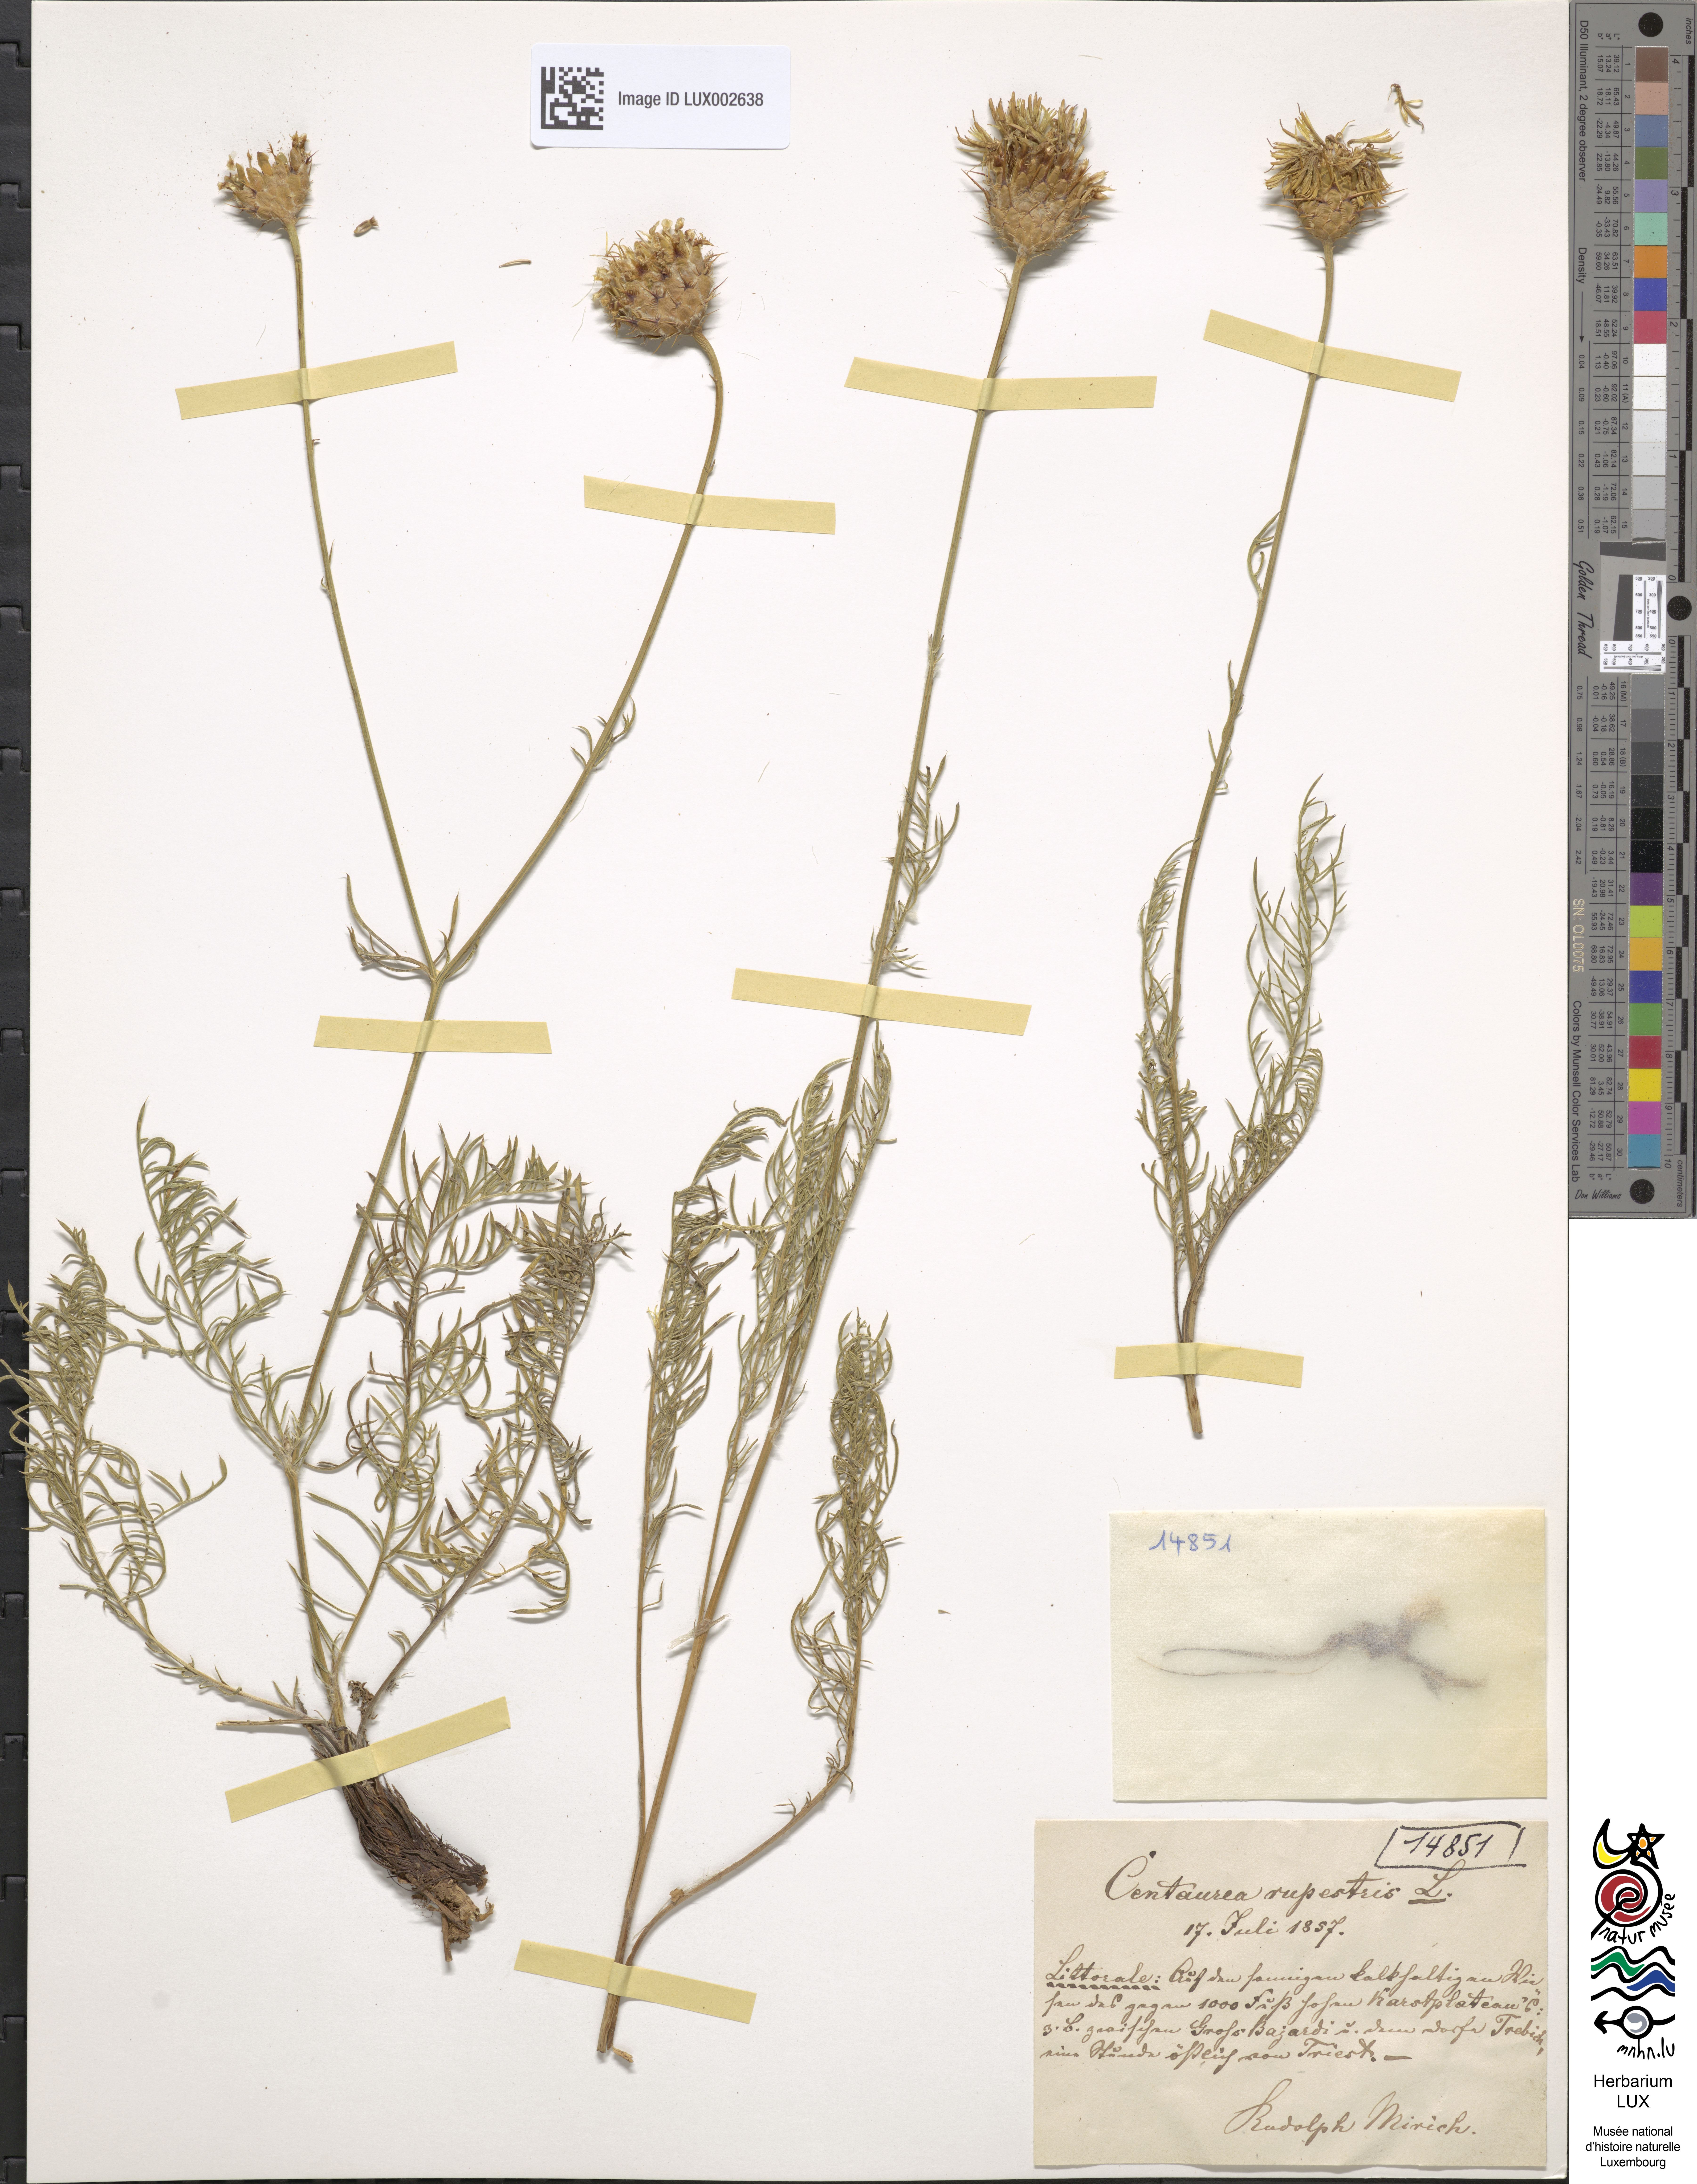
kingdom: Plantae
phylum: Tracheophyta
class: Magnoliopsida
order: Asterales
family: Asteraceae
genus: Centaurea
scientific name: Centaurea rupestris
